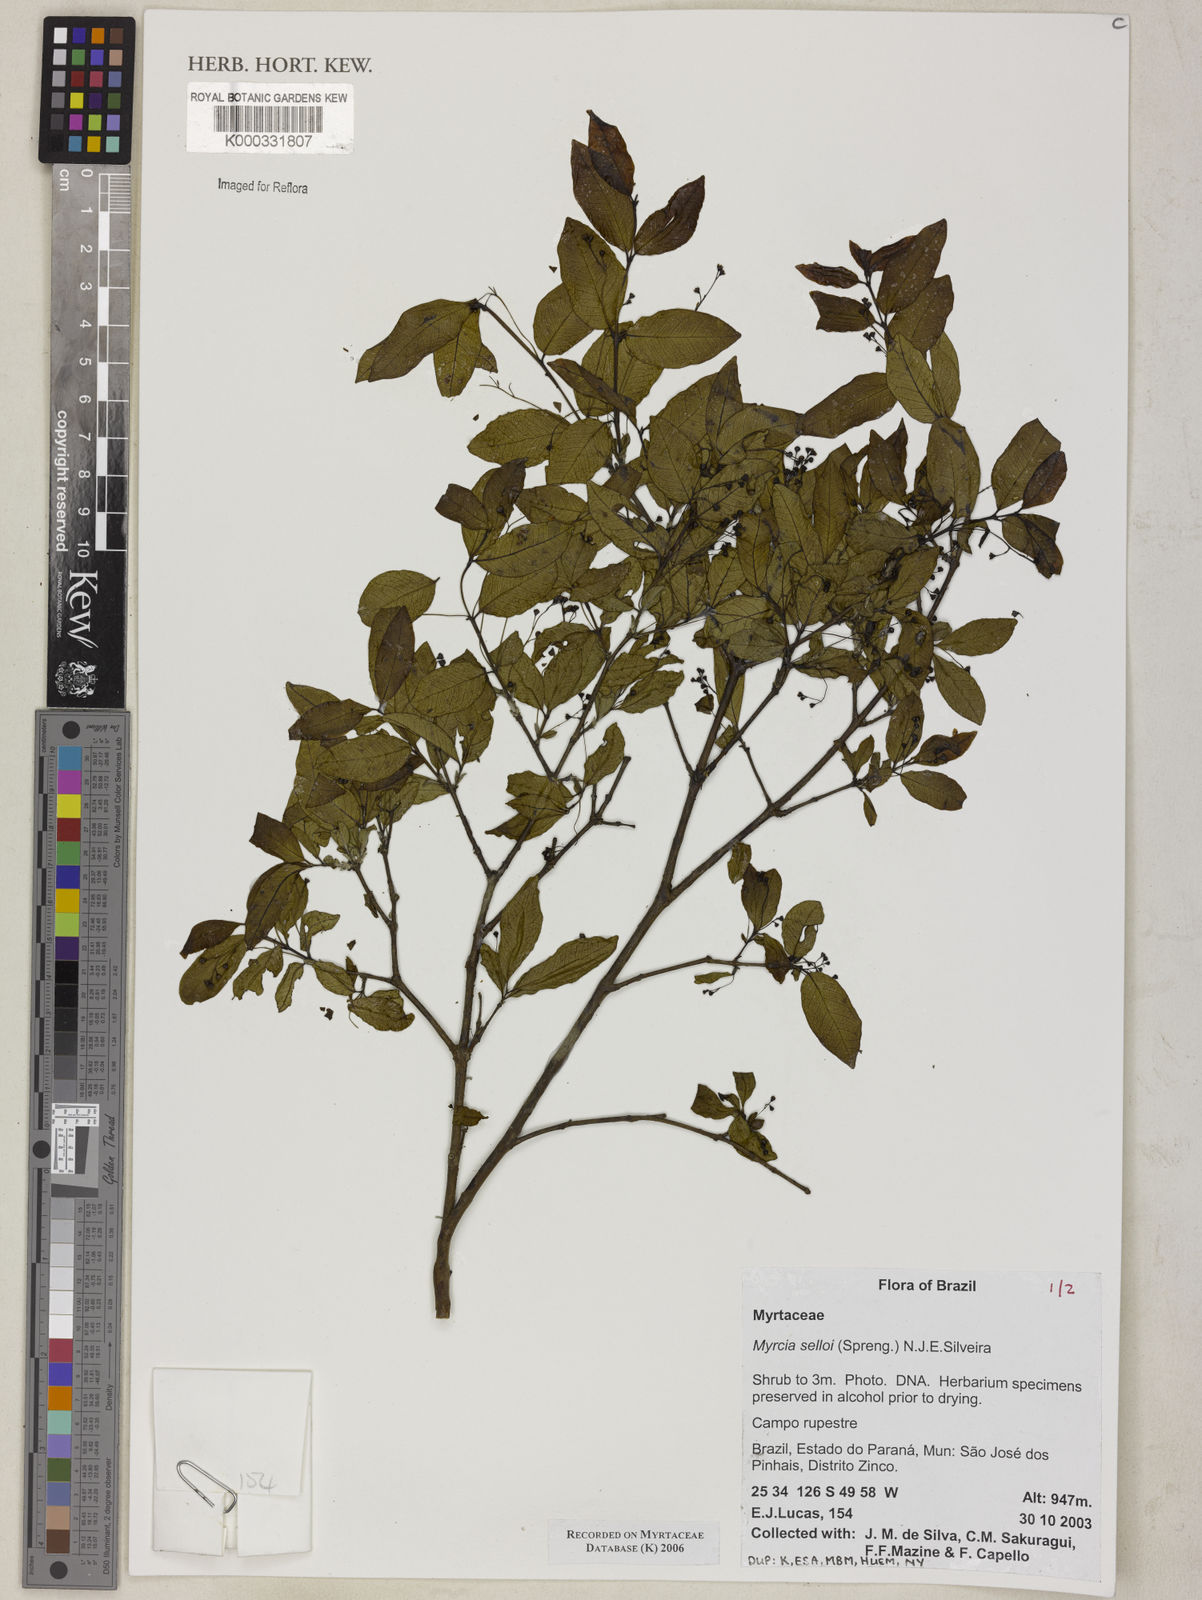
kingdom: Plantae
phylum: Tracheophyta
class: Magnoliopsida
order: Myrtales
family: Myrtaceae
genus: Myrcia
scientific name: Myrcia selloi
